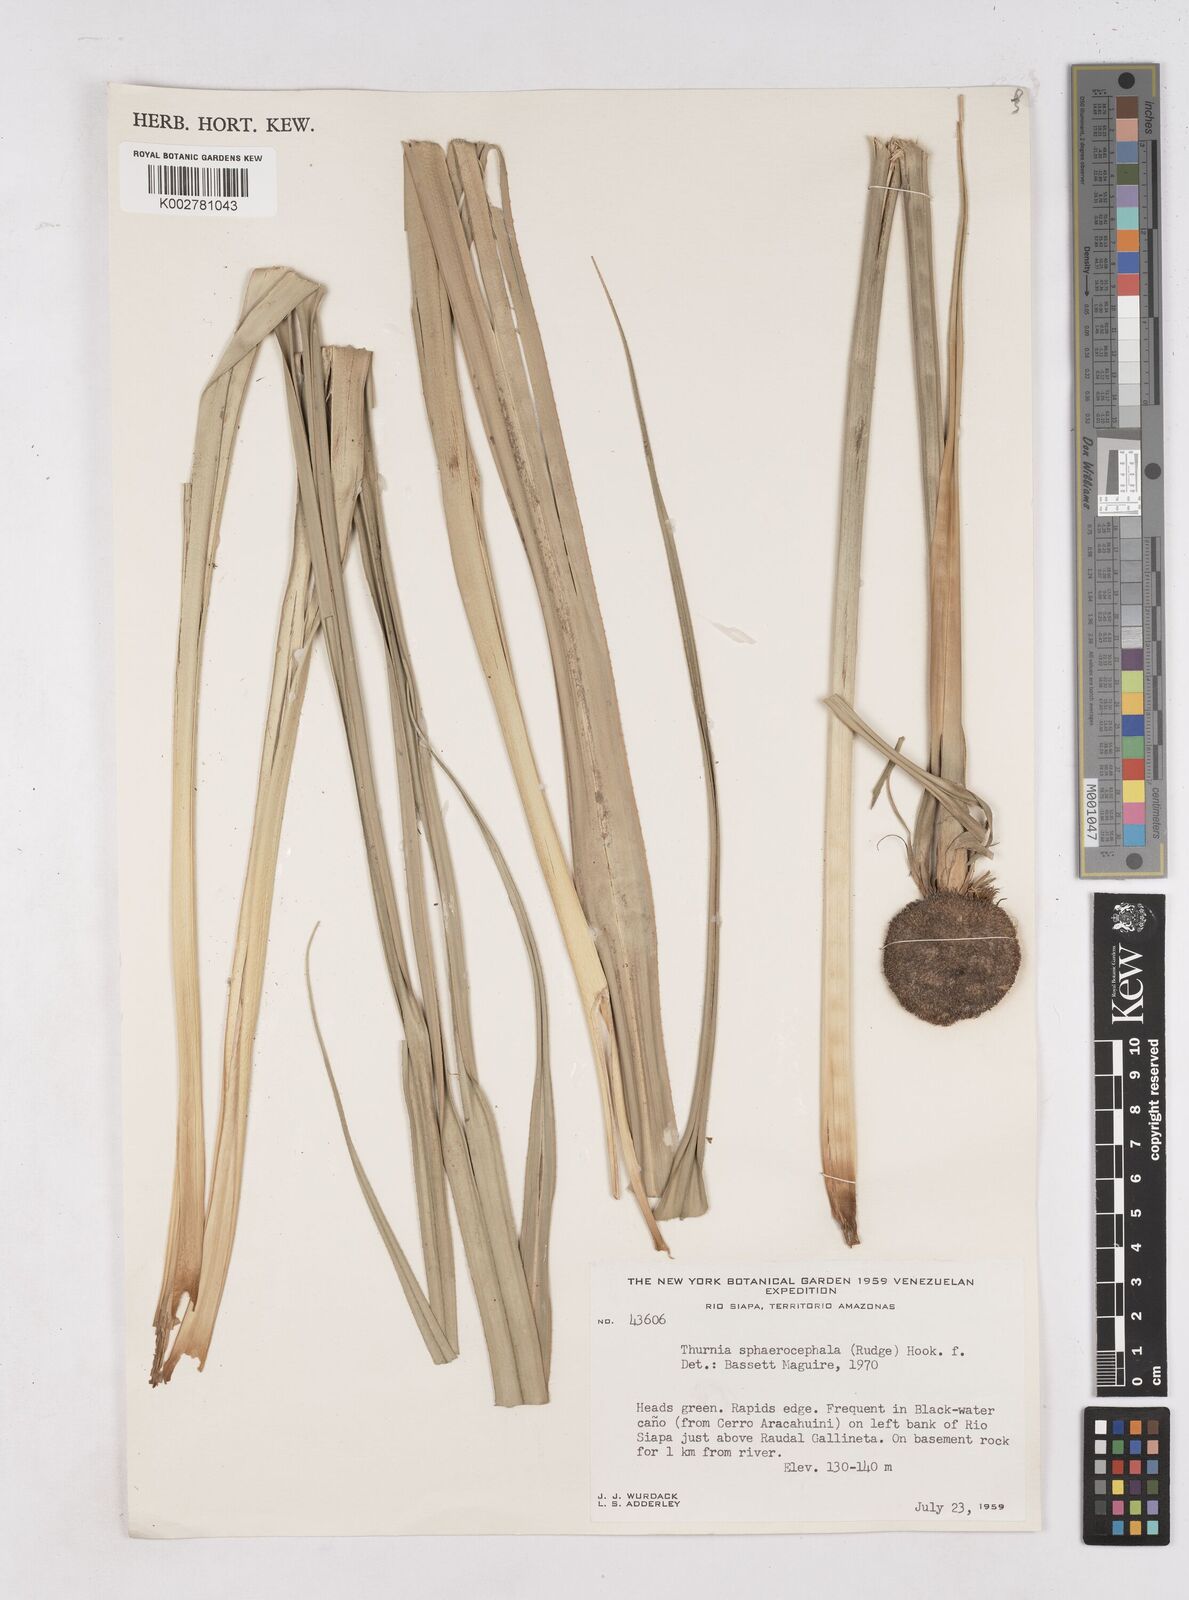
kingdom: Plantae
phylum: Tracheophyta
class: Liliopsida
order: Poales
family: Thurniaceae
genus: Thurnia
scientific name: Thurnia sphaerocephala
